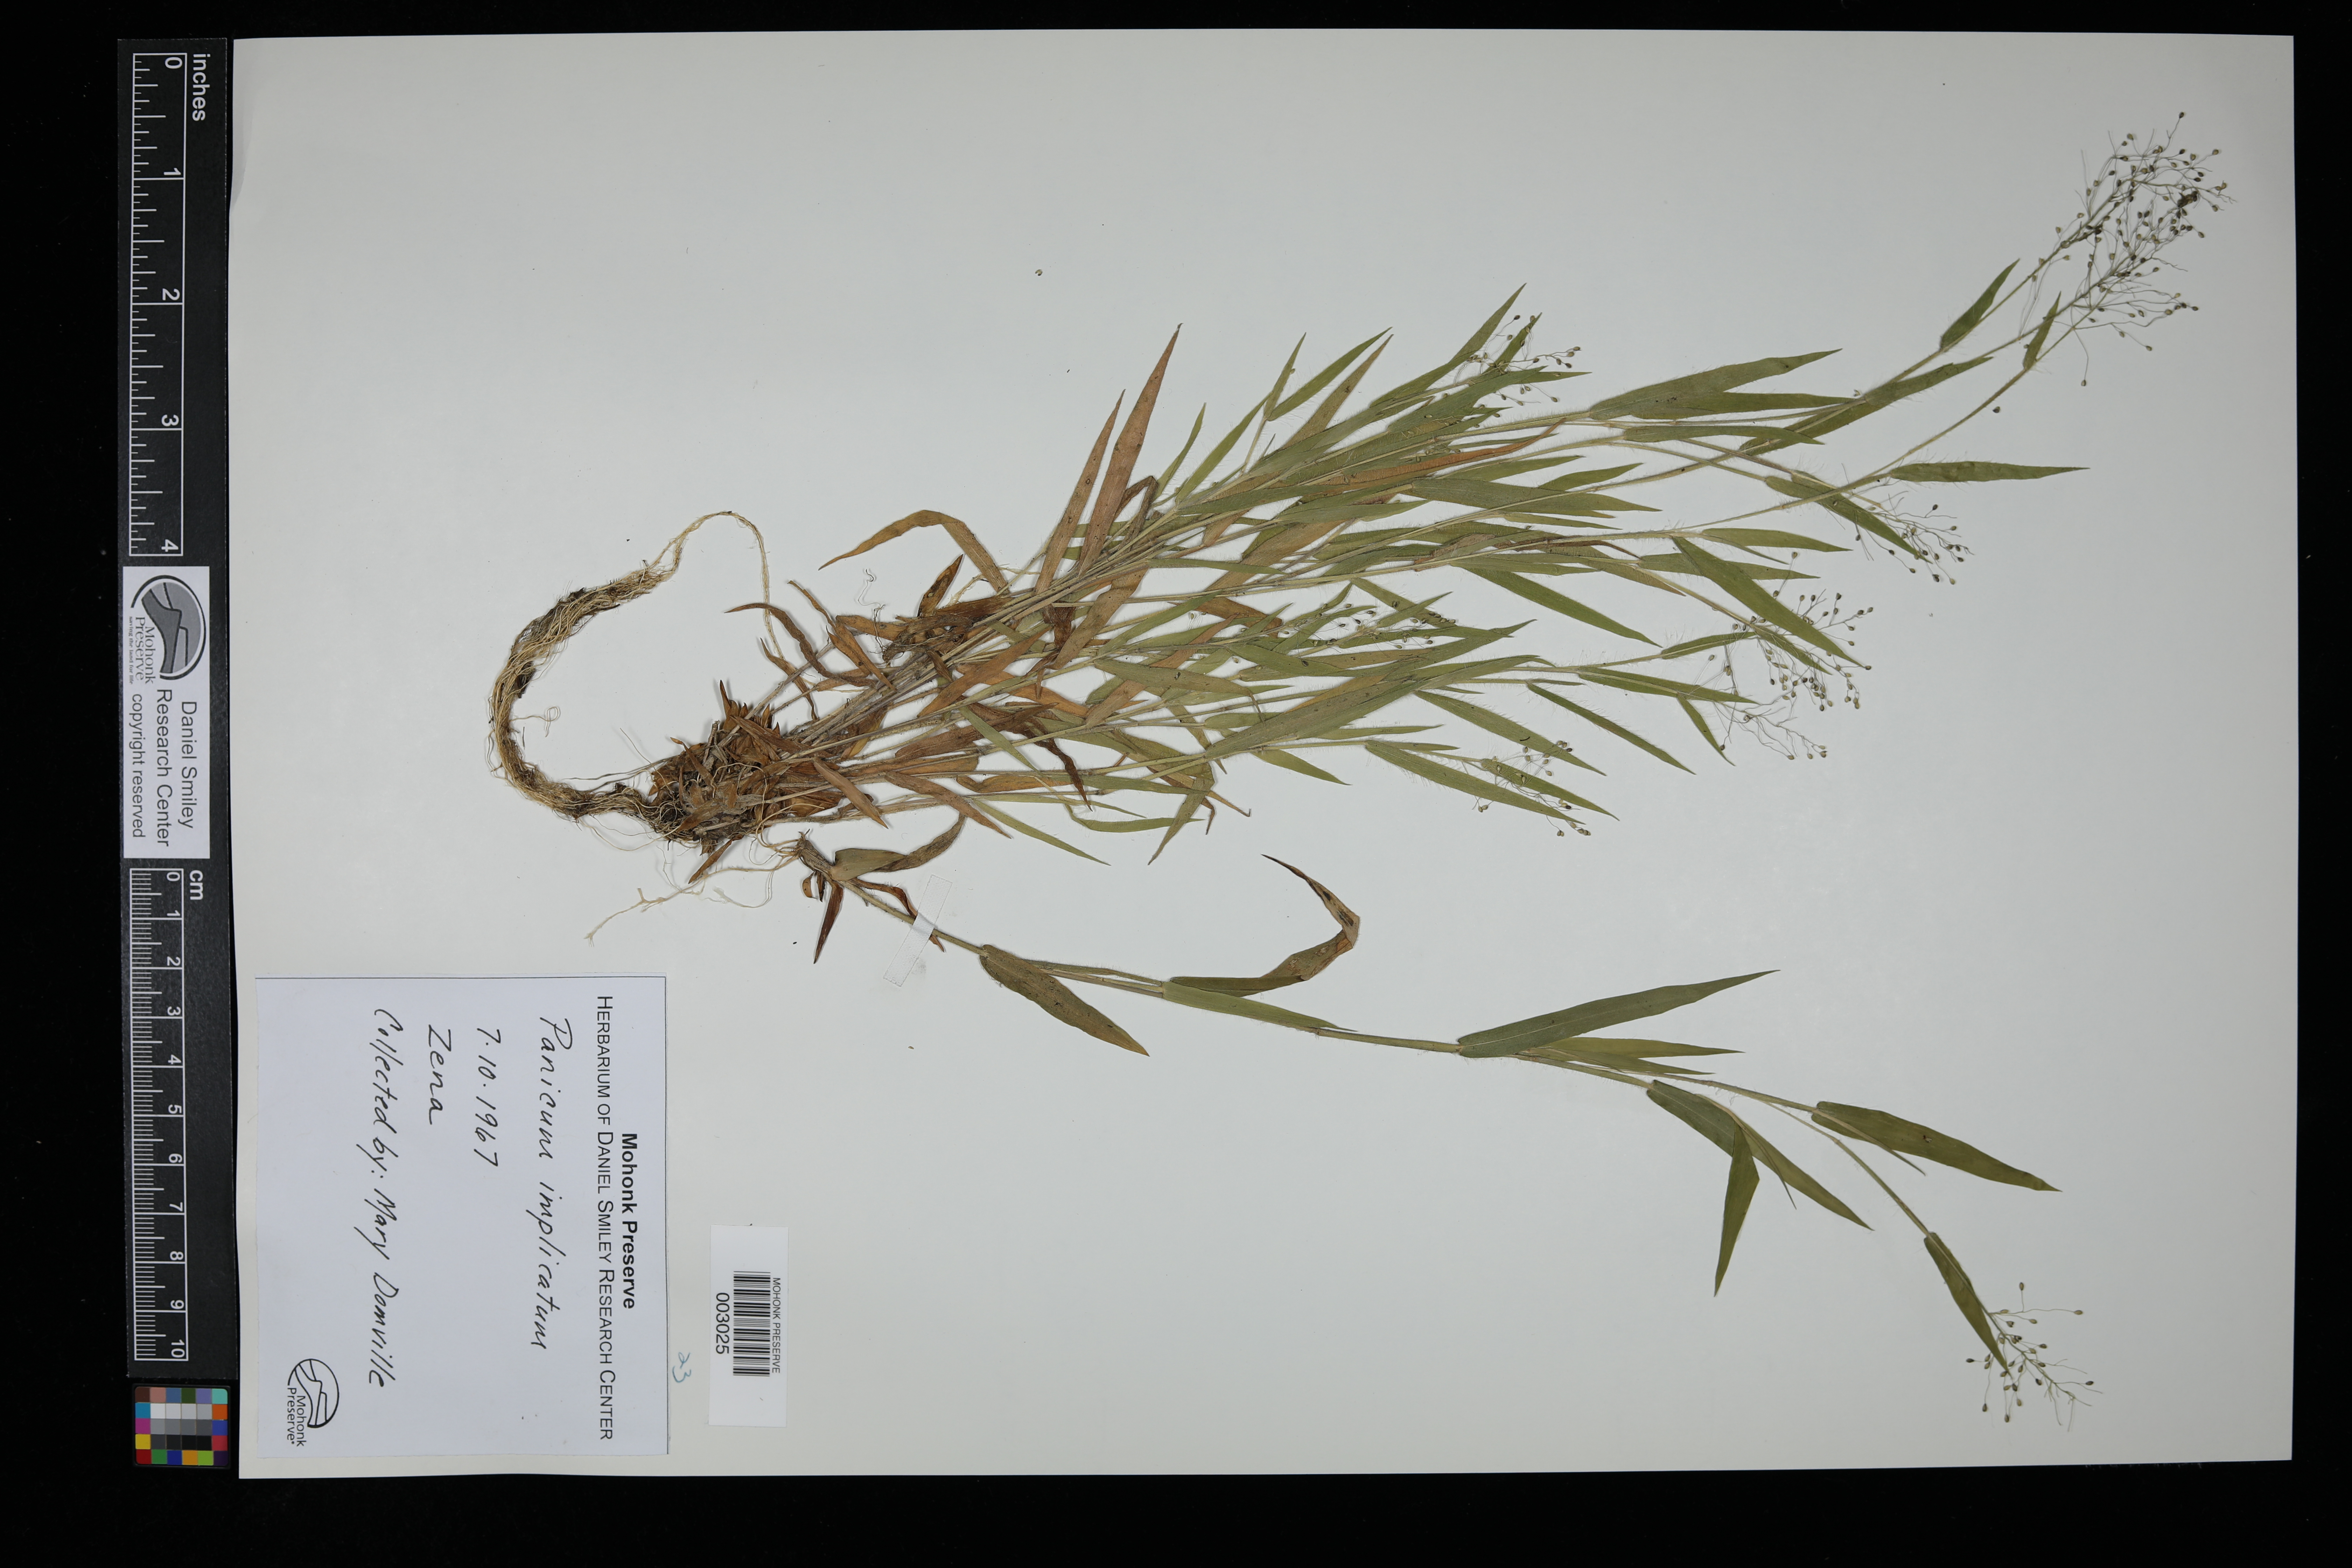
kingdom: Plantae
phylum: Tracheophyta
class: Liliopsida
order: Poales
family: Poaceae
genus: Dichanthelium
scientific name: Dichanthelium acuminatum
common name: Hairy panic grass
